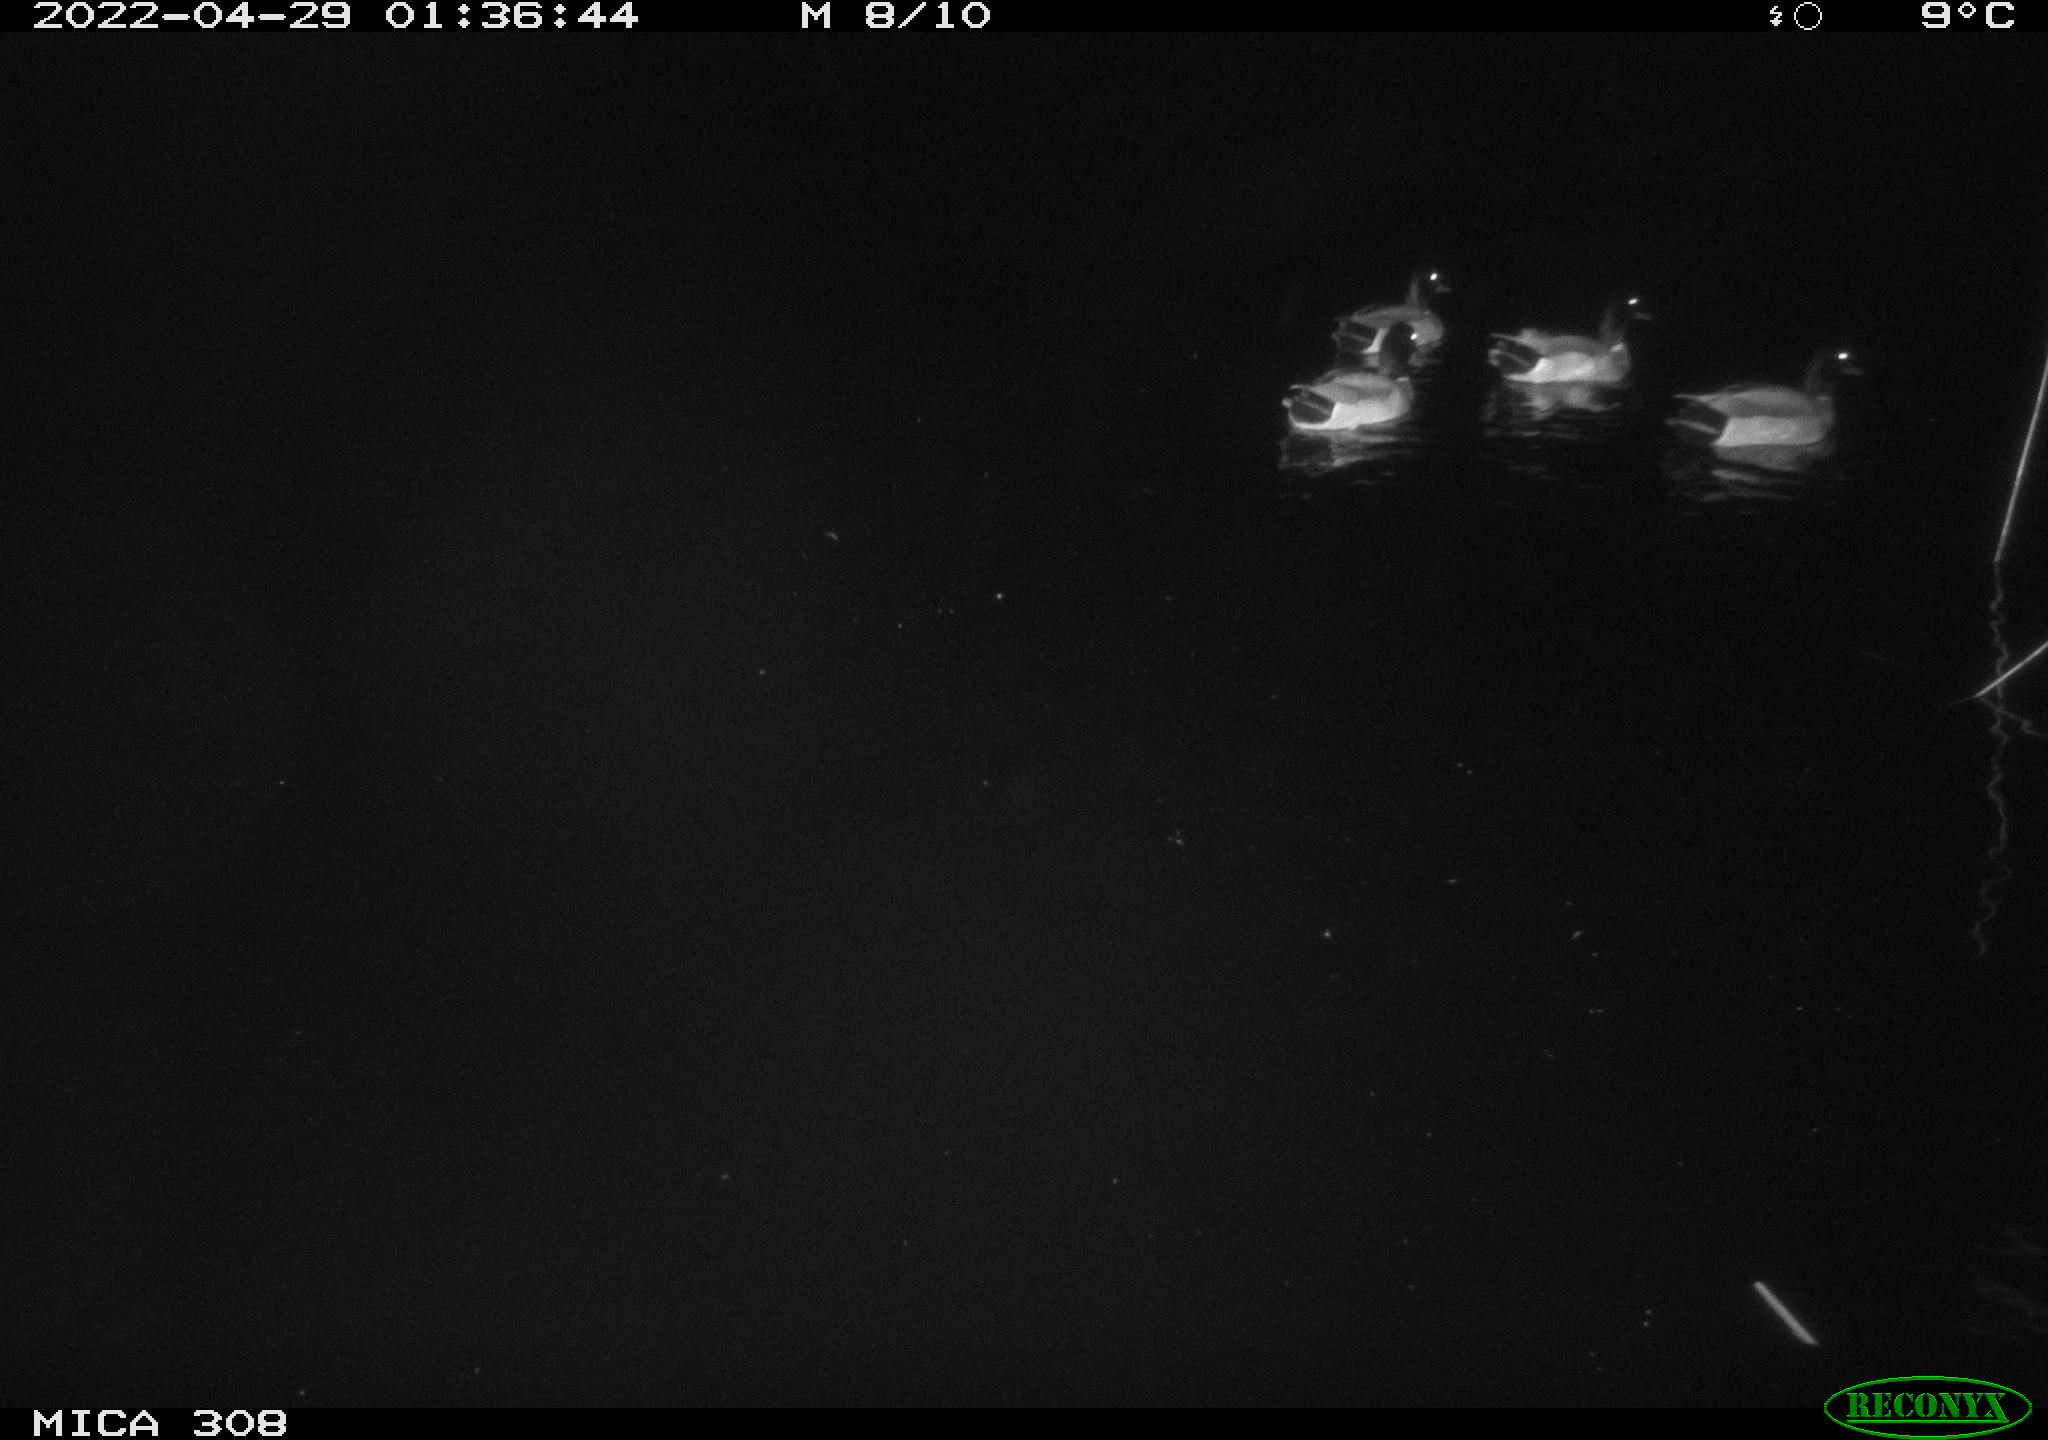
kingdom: Animalia
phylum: Chordata
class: Aves
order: Anseriformes
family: Anatidae
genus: Anas
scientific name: Anas platyrhynchos
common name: Mallard
